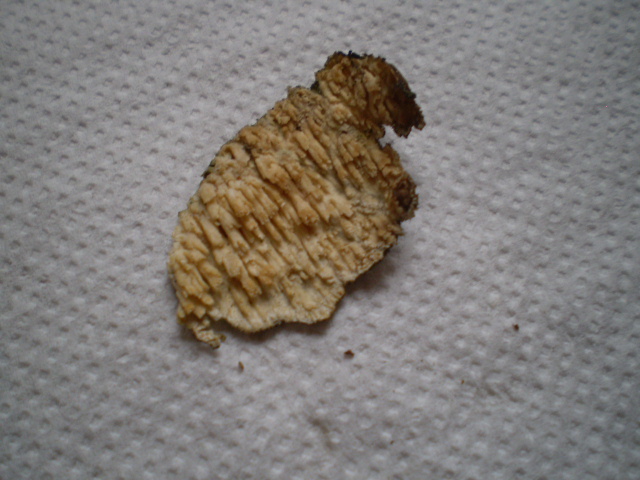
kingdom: Fungi
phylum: Basidiomycota
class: Agaricomycetes
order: Hymenochaetales
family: Schizoporaceae
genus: Xylodon
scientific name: Xylodon radula
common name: grovtandet kalkskind
